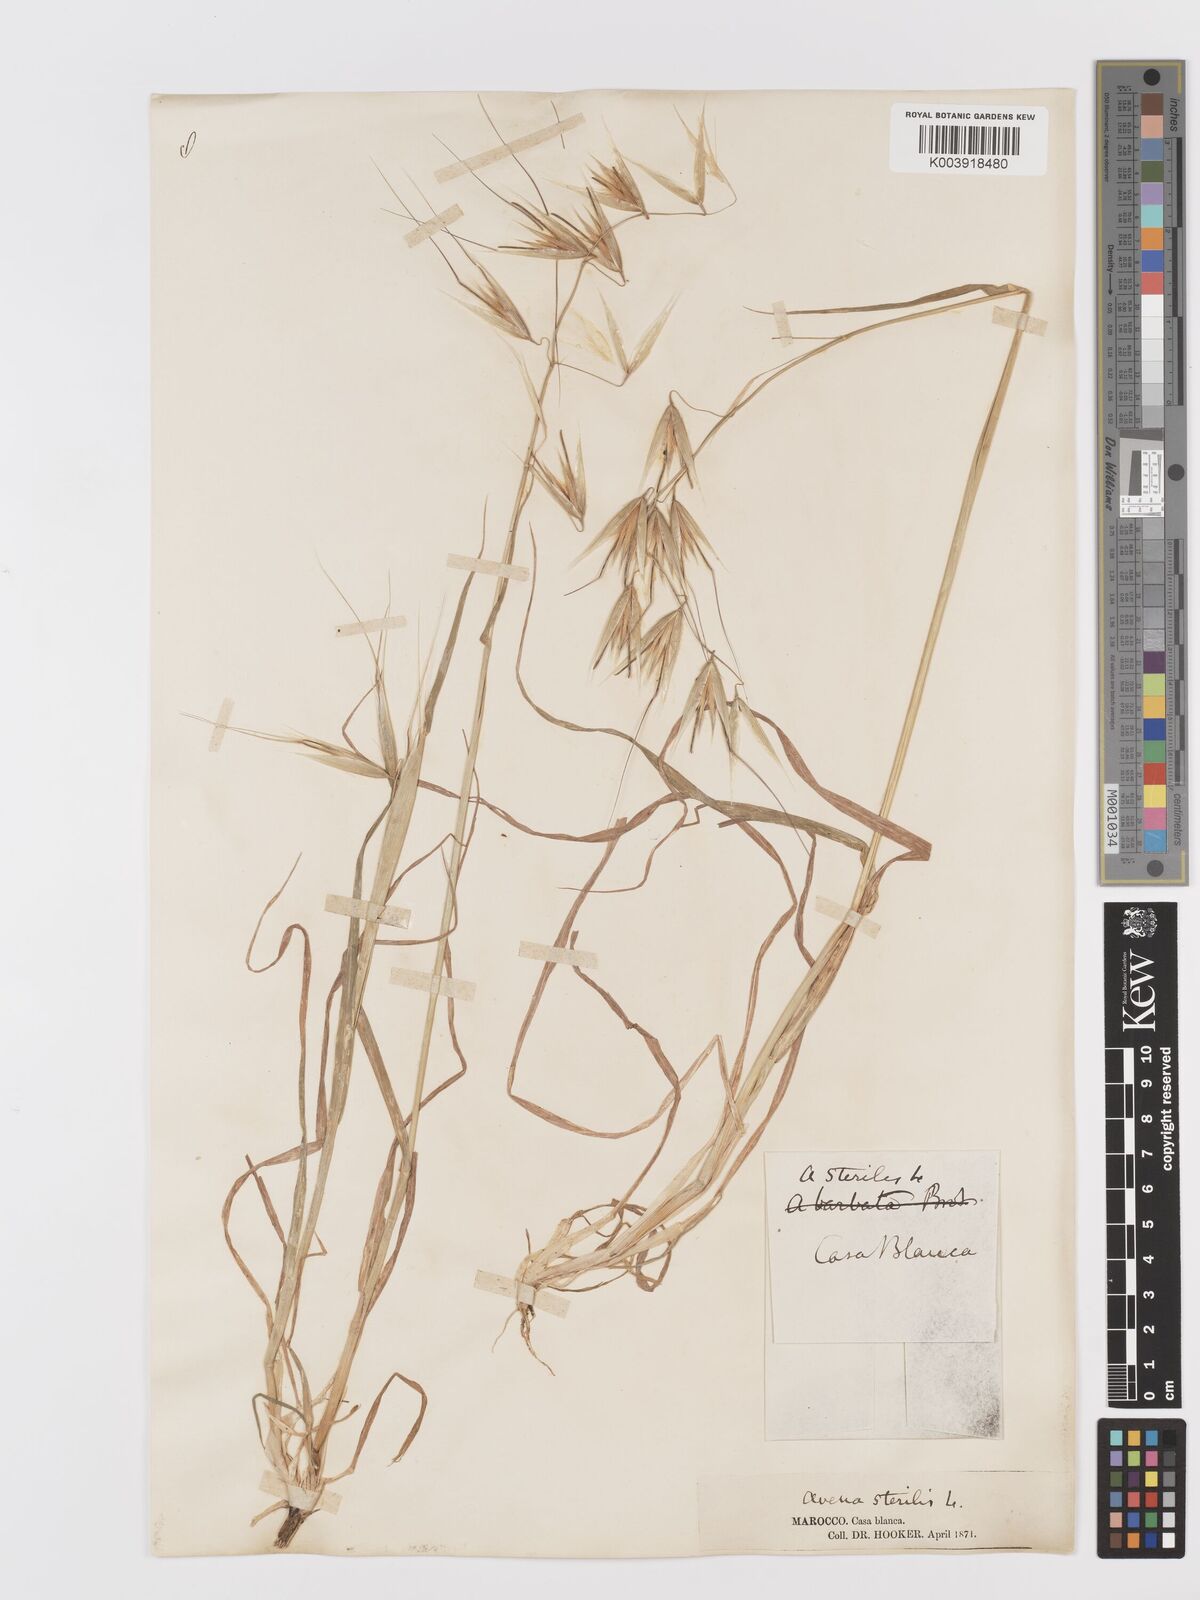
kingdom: Plantae
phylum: Tracheophyta
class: Liliopsida
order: Poales
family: Poaceae
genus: Avena
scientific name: Avena sterilis
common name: Animated oat
